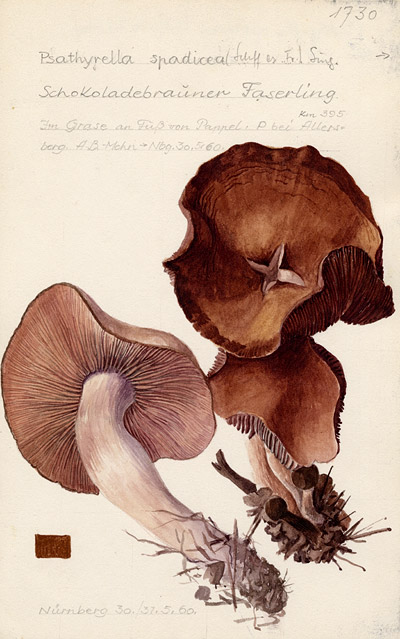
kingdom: Fungi
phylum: Basidiomycota
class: Agaricomycetes
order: Agaricales
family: Psathyrellaceae
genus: Homophron
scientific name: Homophron spadiceum
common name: Chestnut brittlestem
